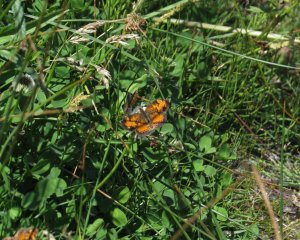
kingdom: Animalia
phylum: Arthropoda
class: Insecta
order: Lepidoptera
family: Nymphalidae
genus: Phyciodes
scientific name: Phyciodes tharos
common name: Northern Crescent
